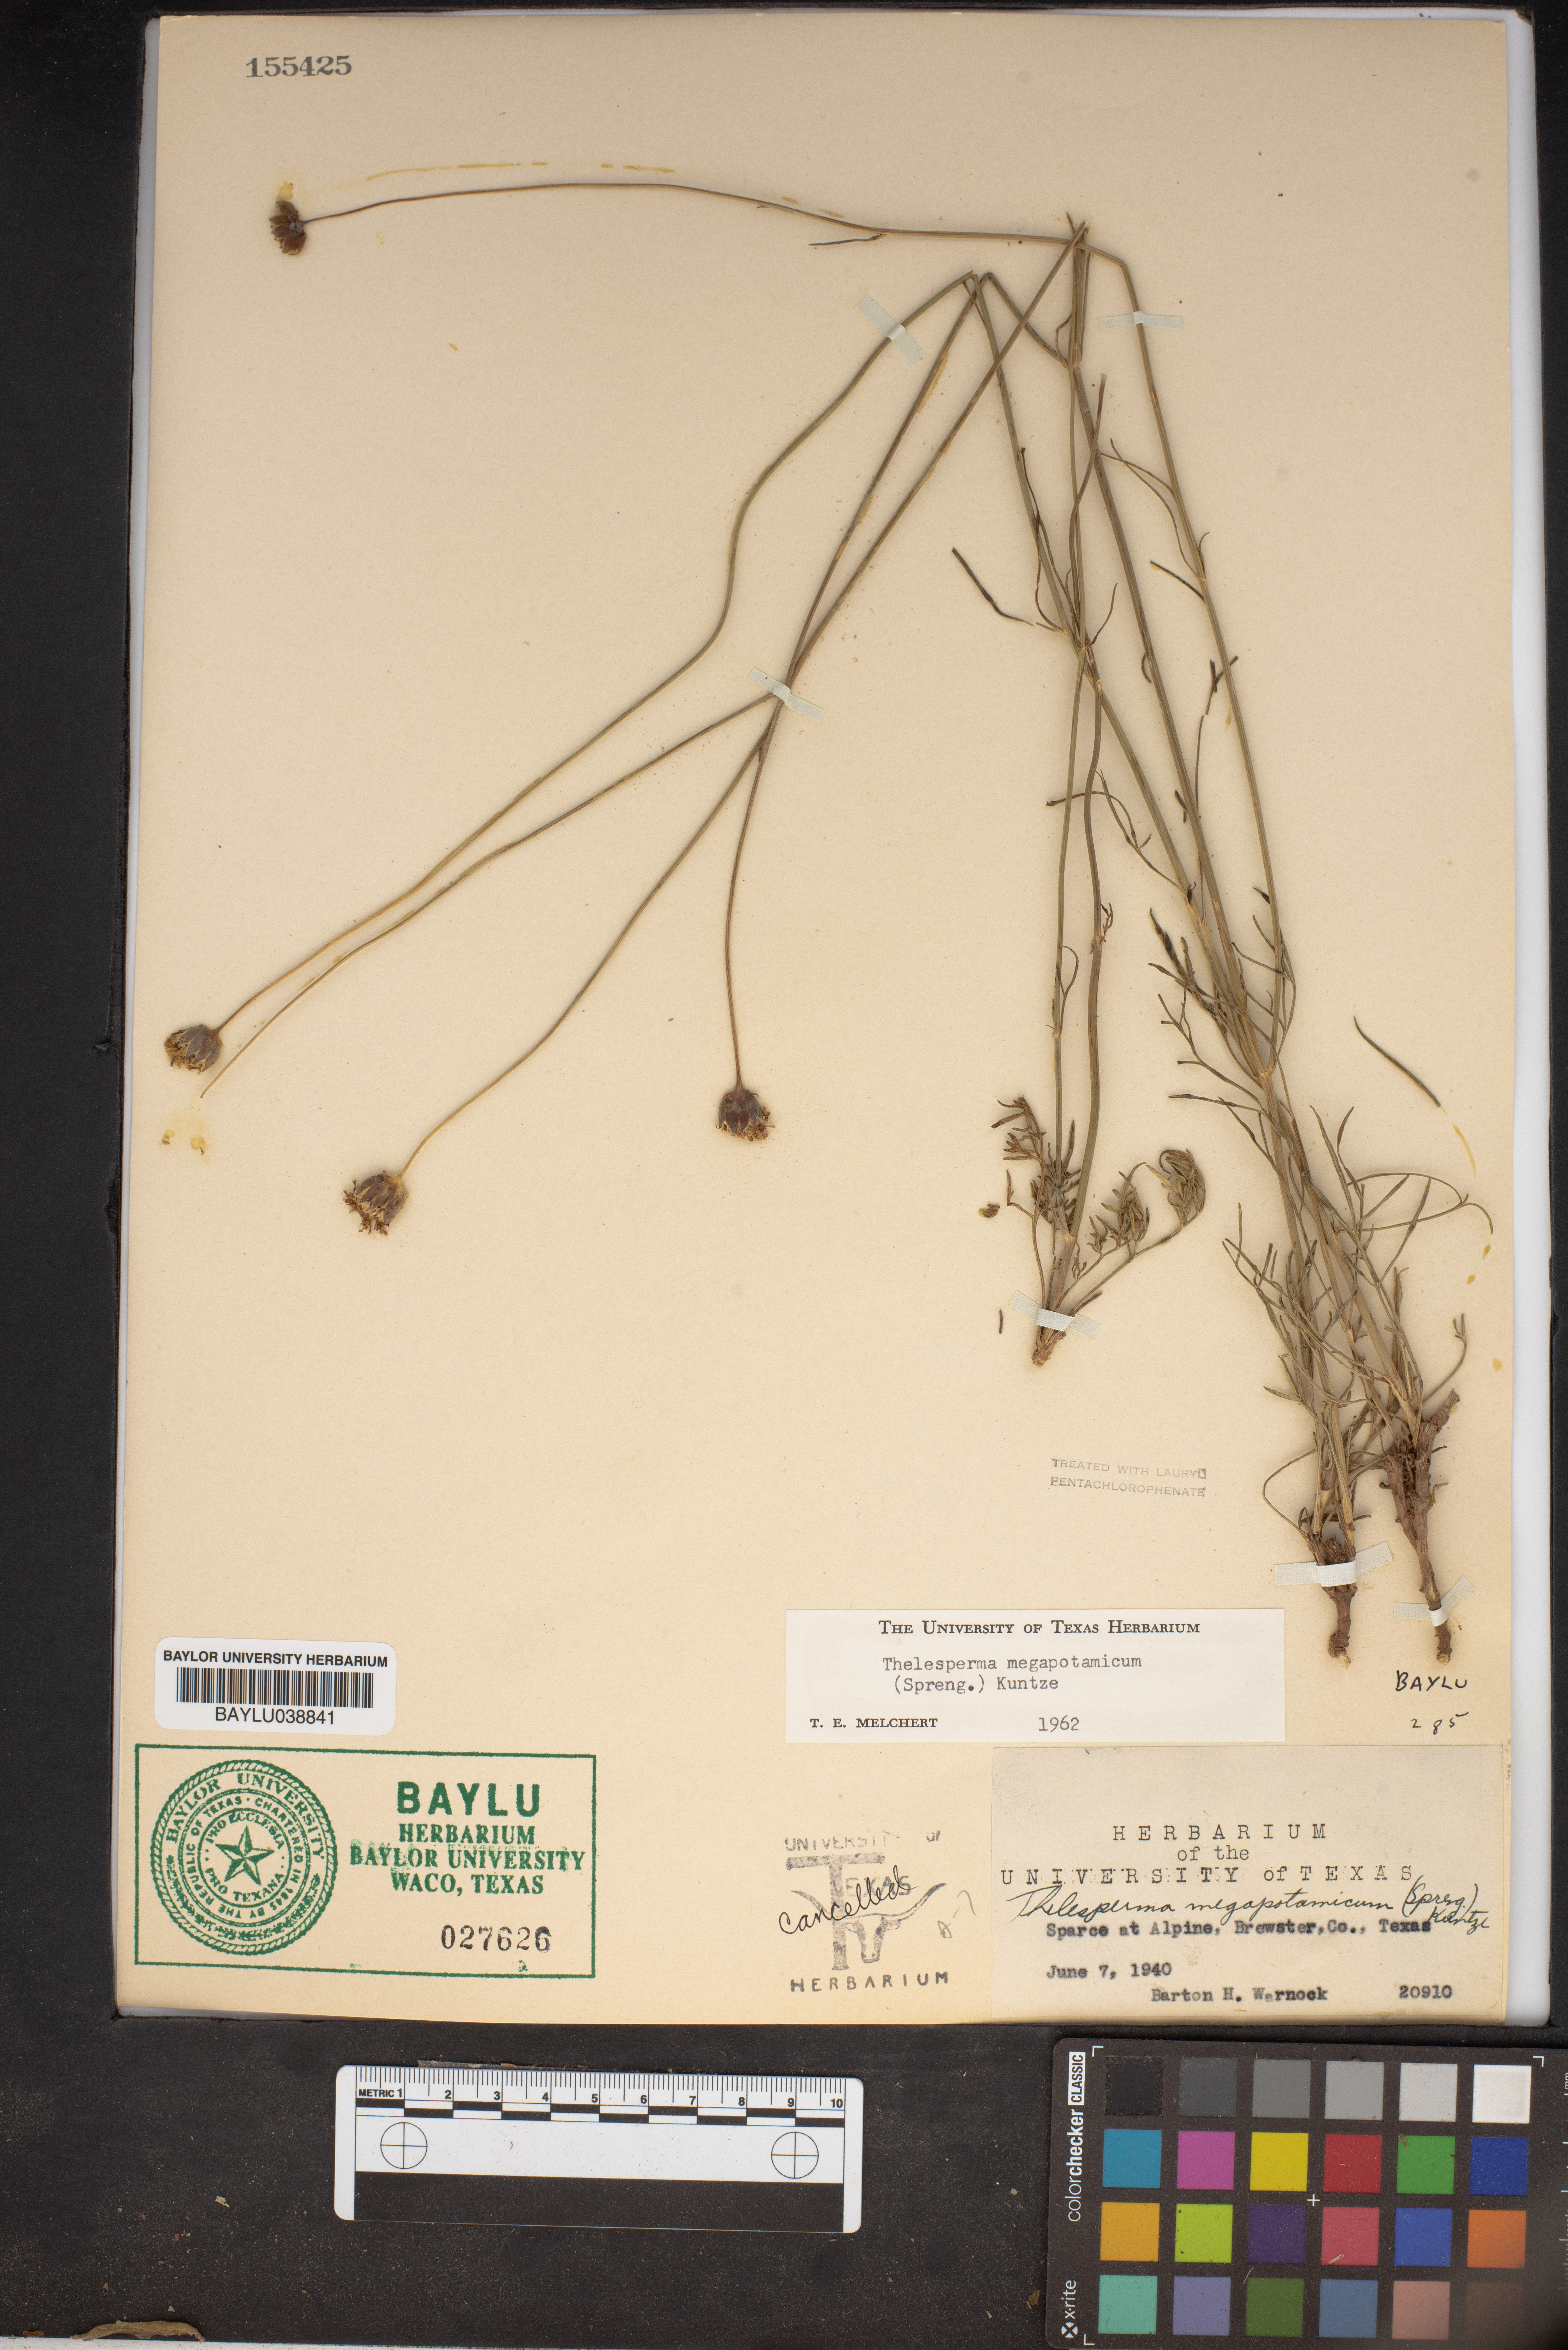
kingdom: Plantae
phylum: Tracheophyta
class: Magnoliopsida
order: Asterales
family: Asteraceae
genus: Thelesperma
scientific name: Thelesperma megapotamicum
